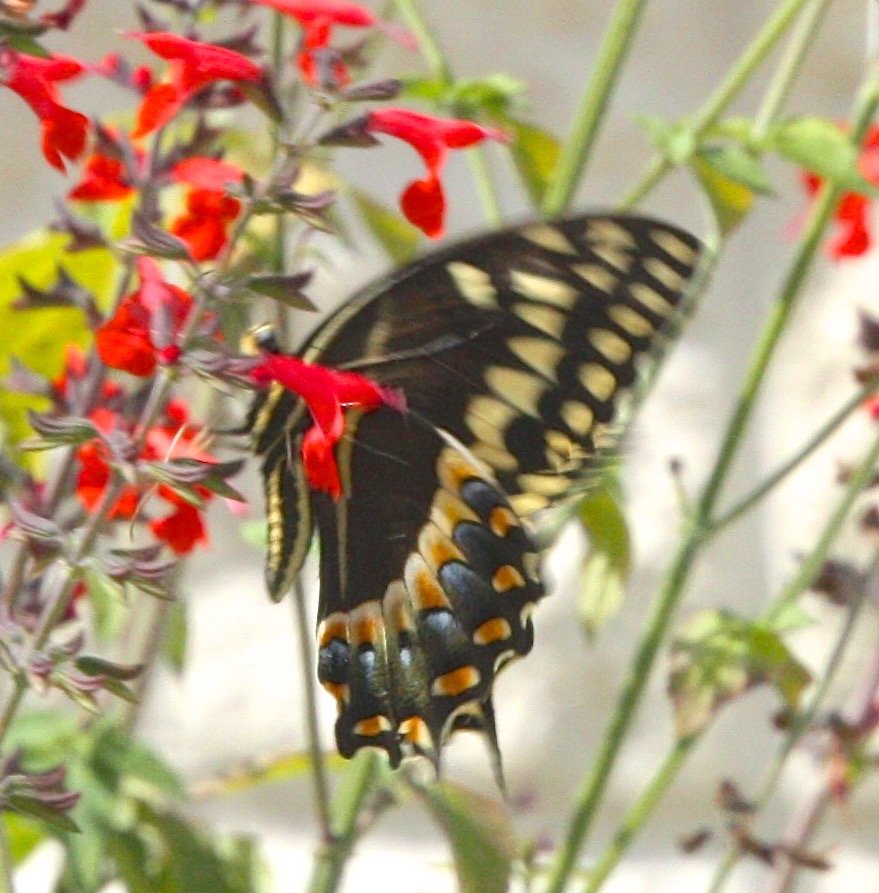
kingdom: Animalia
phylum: Arthropoda
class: Insecta
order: Lepidoptera
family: Papilionidae
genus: Pterourus
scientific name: Pterourus palamedes
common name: Palamedes Swallowtail
